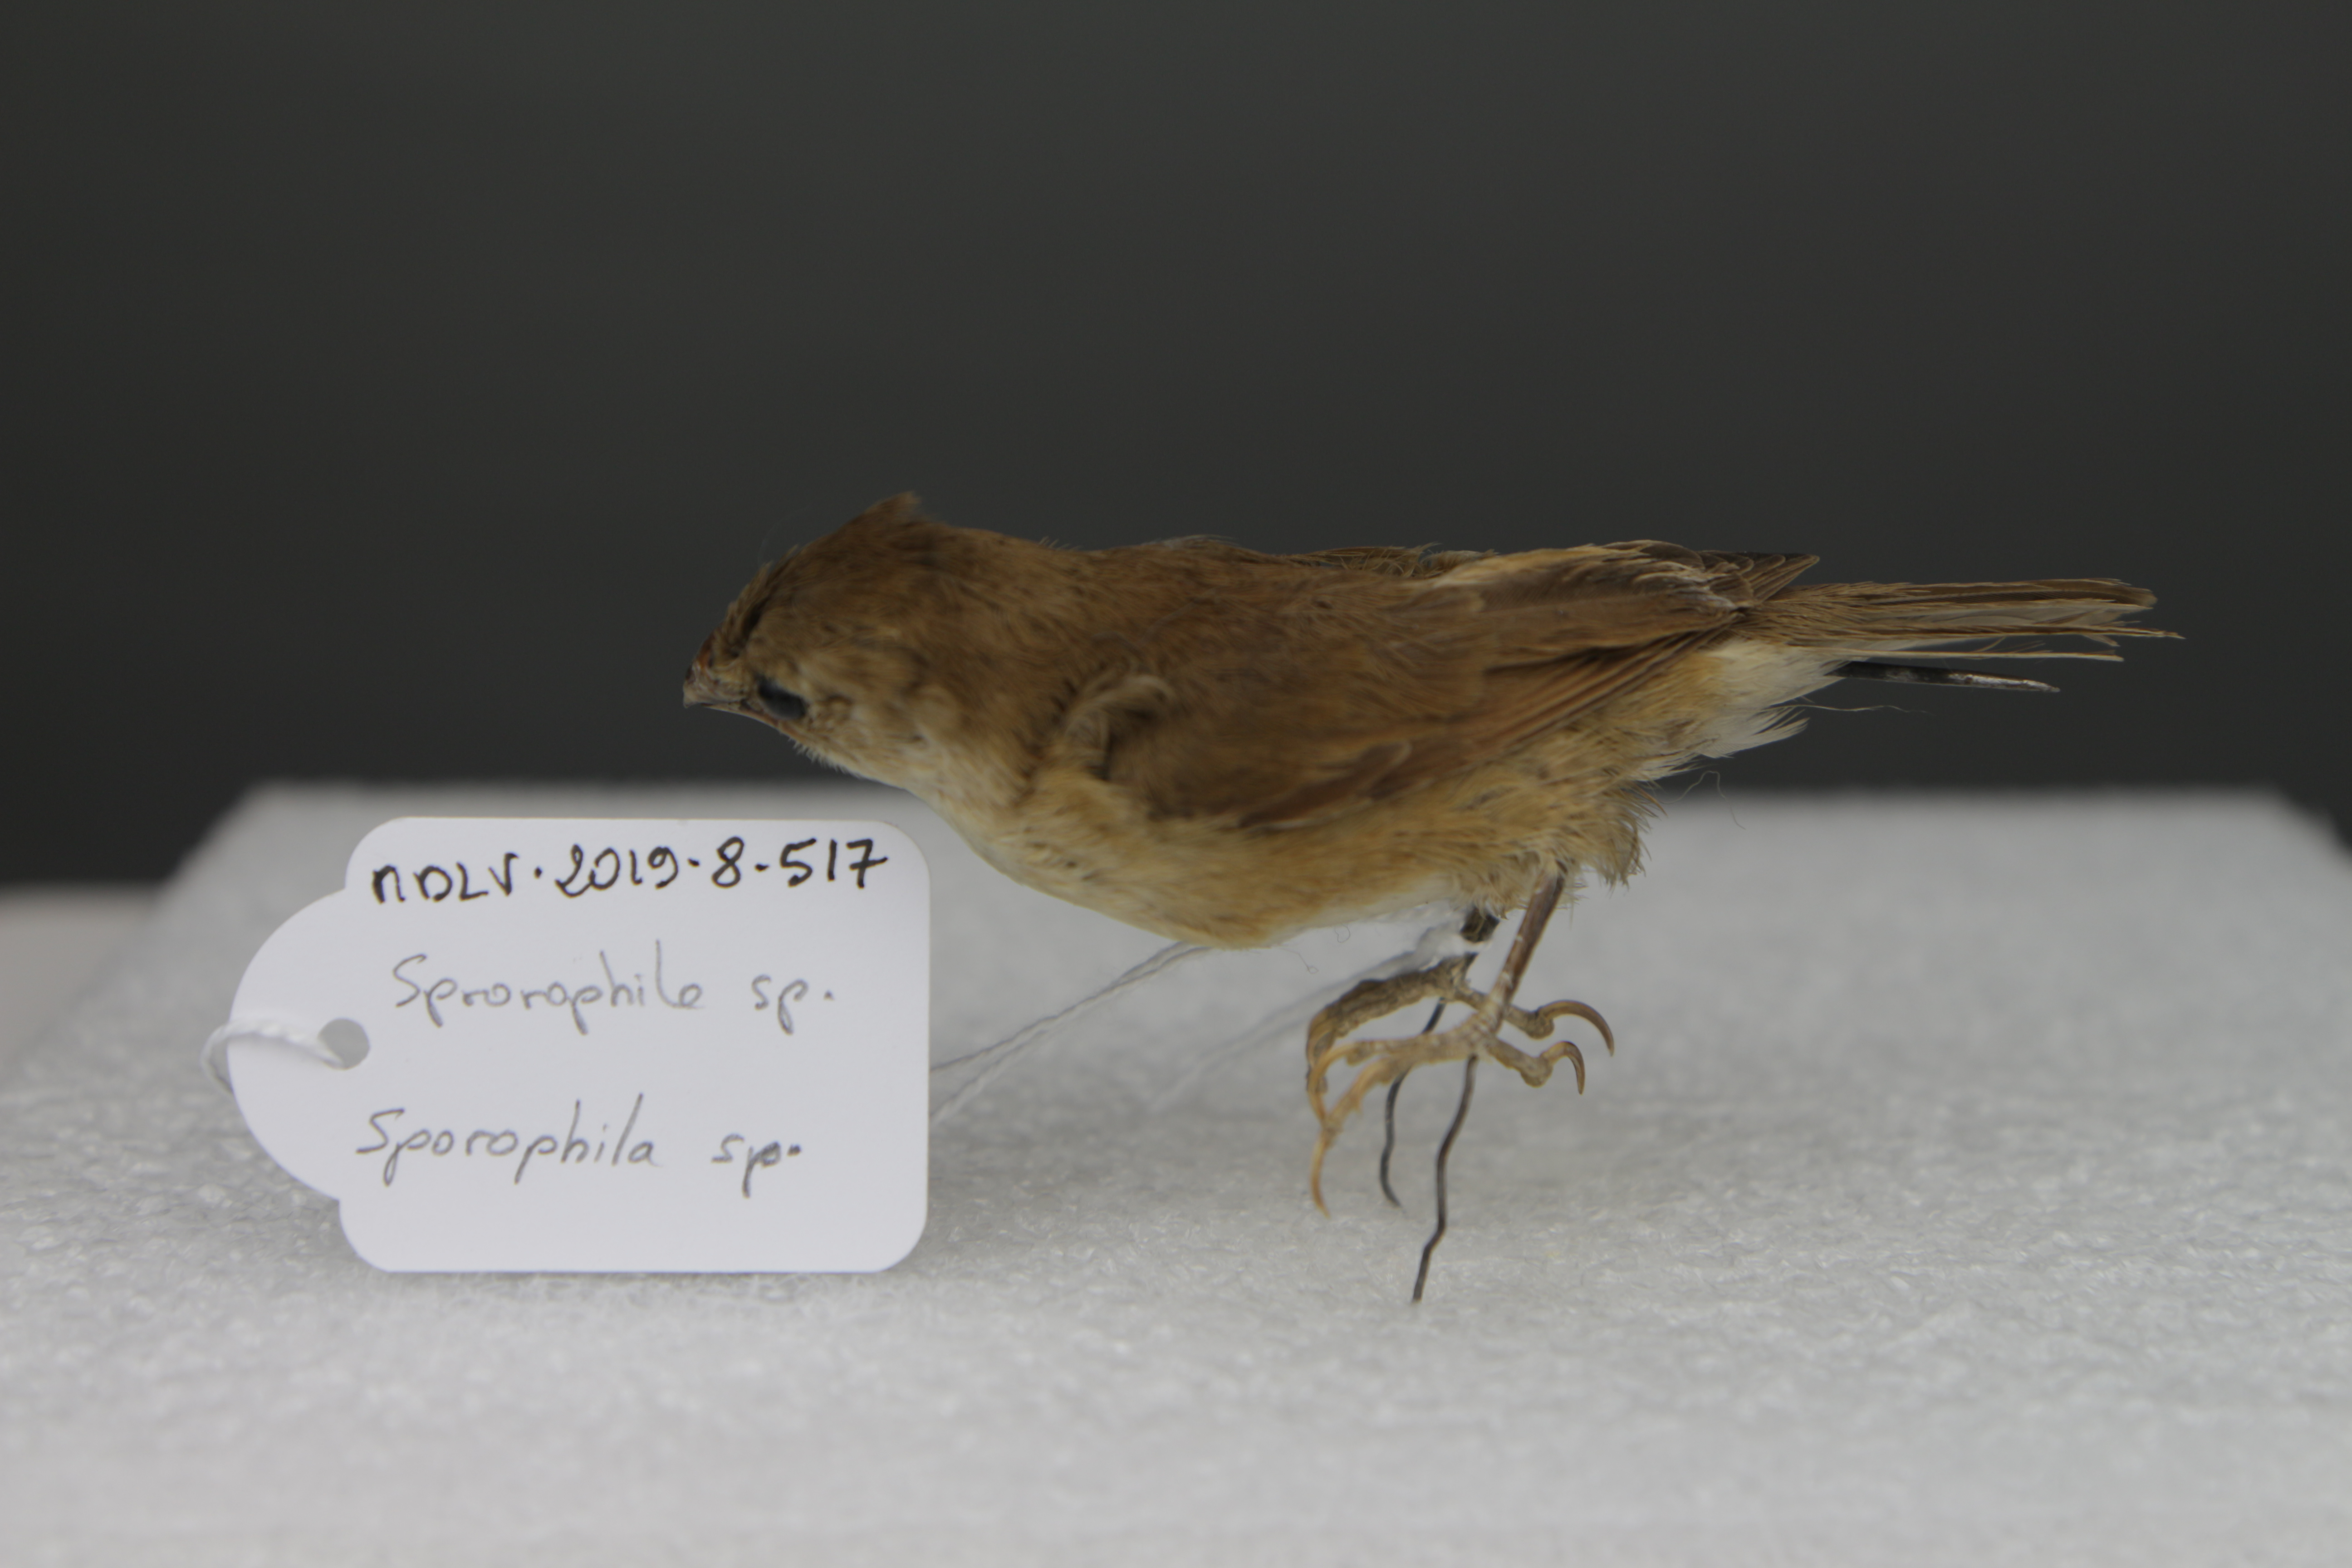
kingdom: Animalia
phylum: Chordata
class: Aves
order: Passeriformes
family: Thraupidae
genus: Sporophila
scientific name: Sporophila
